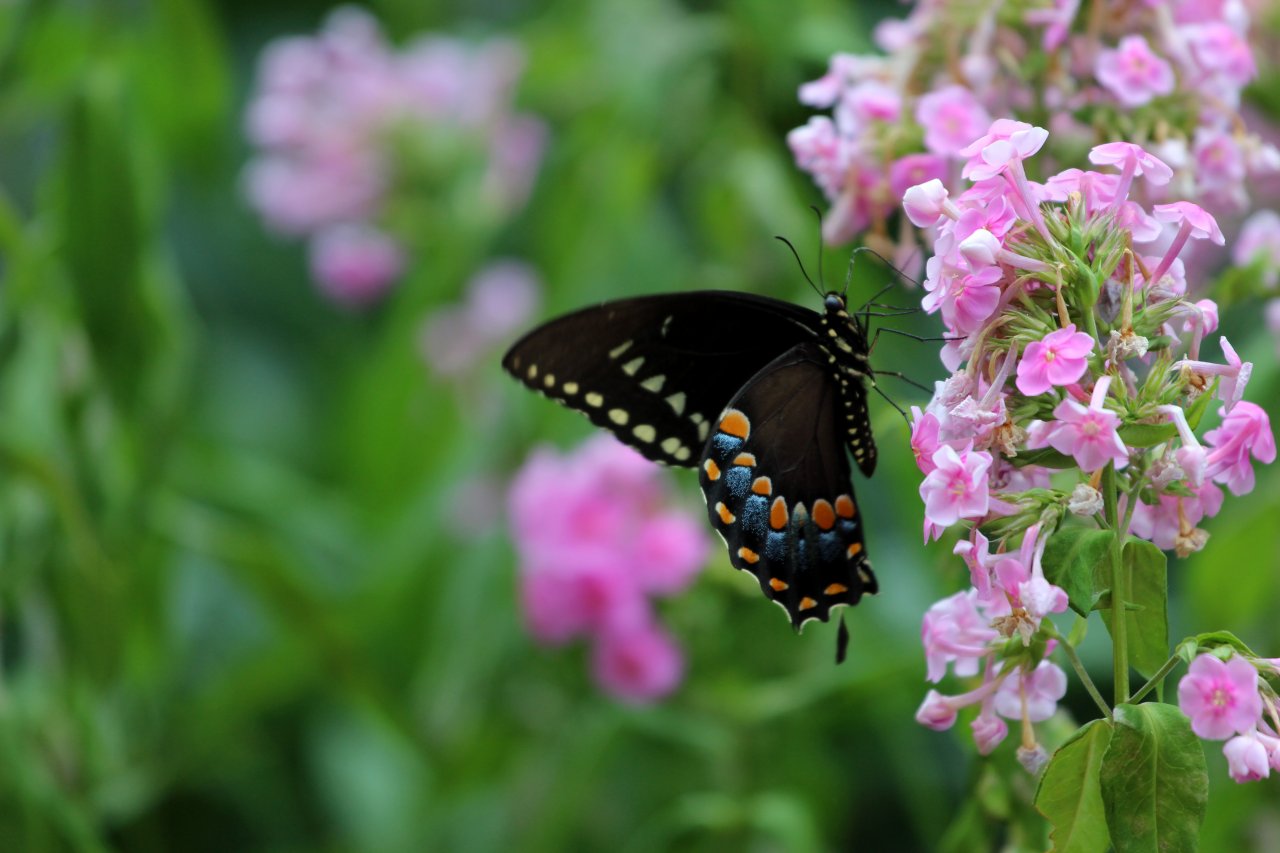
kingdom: Animalia
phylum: Arthropoda
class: Insecta
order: Lepidoptera
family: Papilionidae
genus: Pterourus
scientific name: Pterourus troilus
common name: Spicebush Swallowtail
